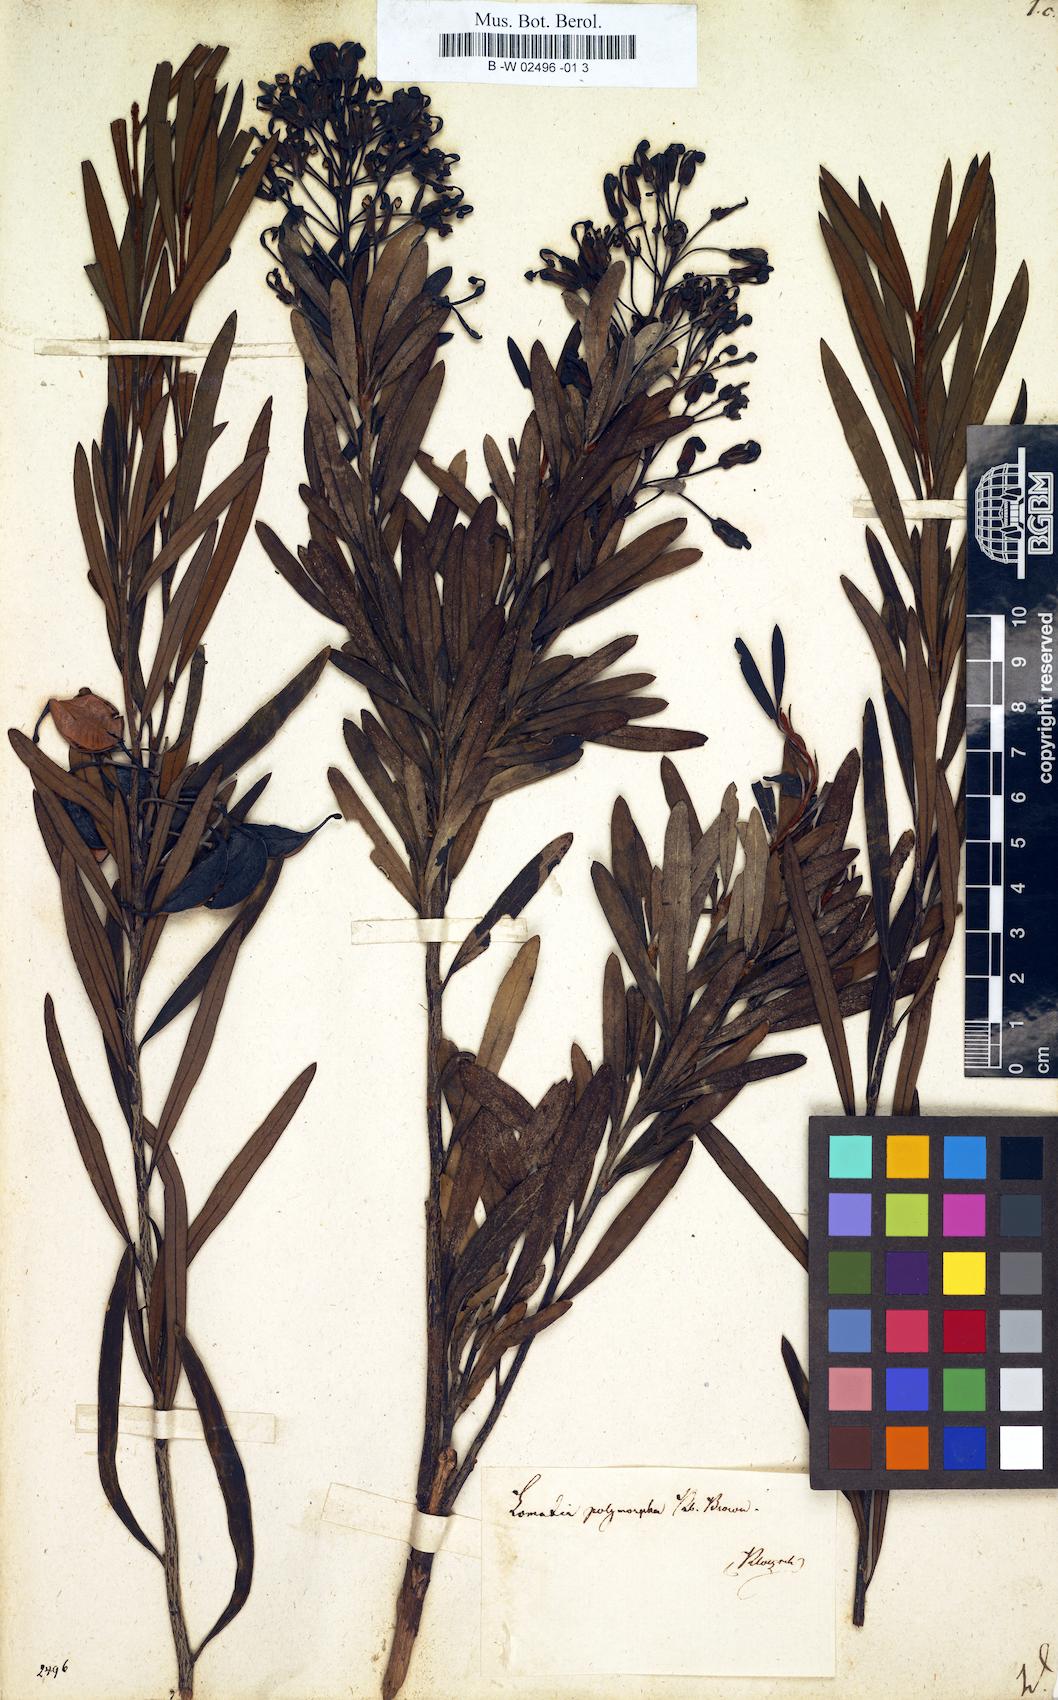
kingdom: Plantae
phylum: Tracheophyta
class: Magnoliopsida
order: Proteales
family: Proteaceae
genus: Lomatia
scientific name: Lomatia tinctoria
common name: Guitar plant
